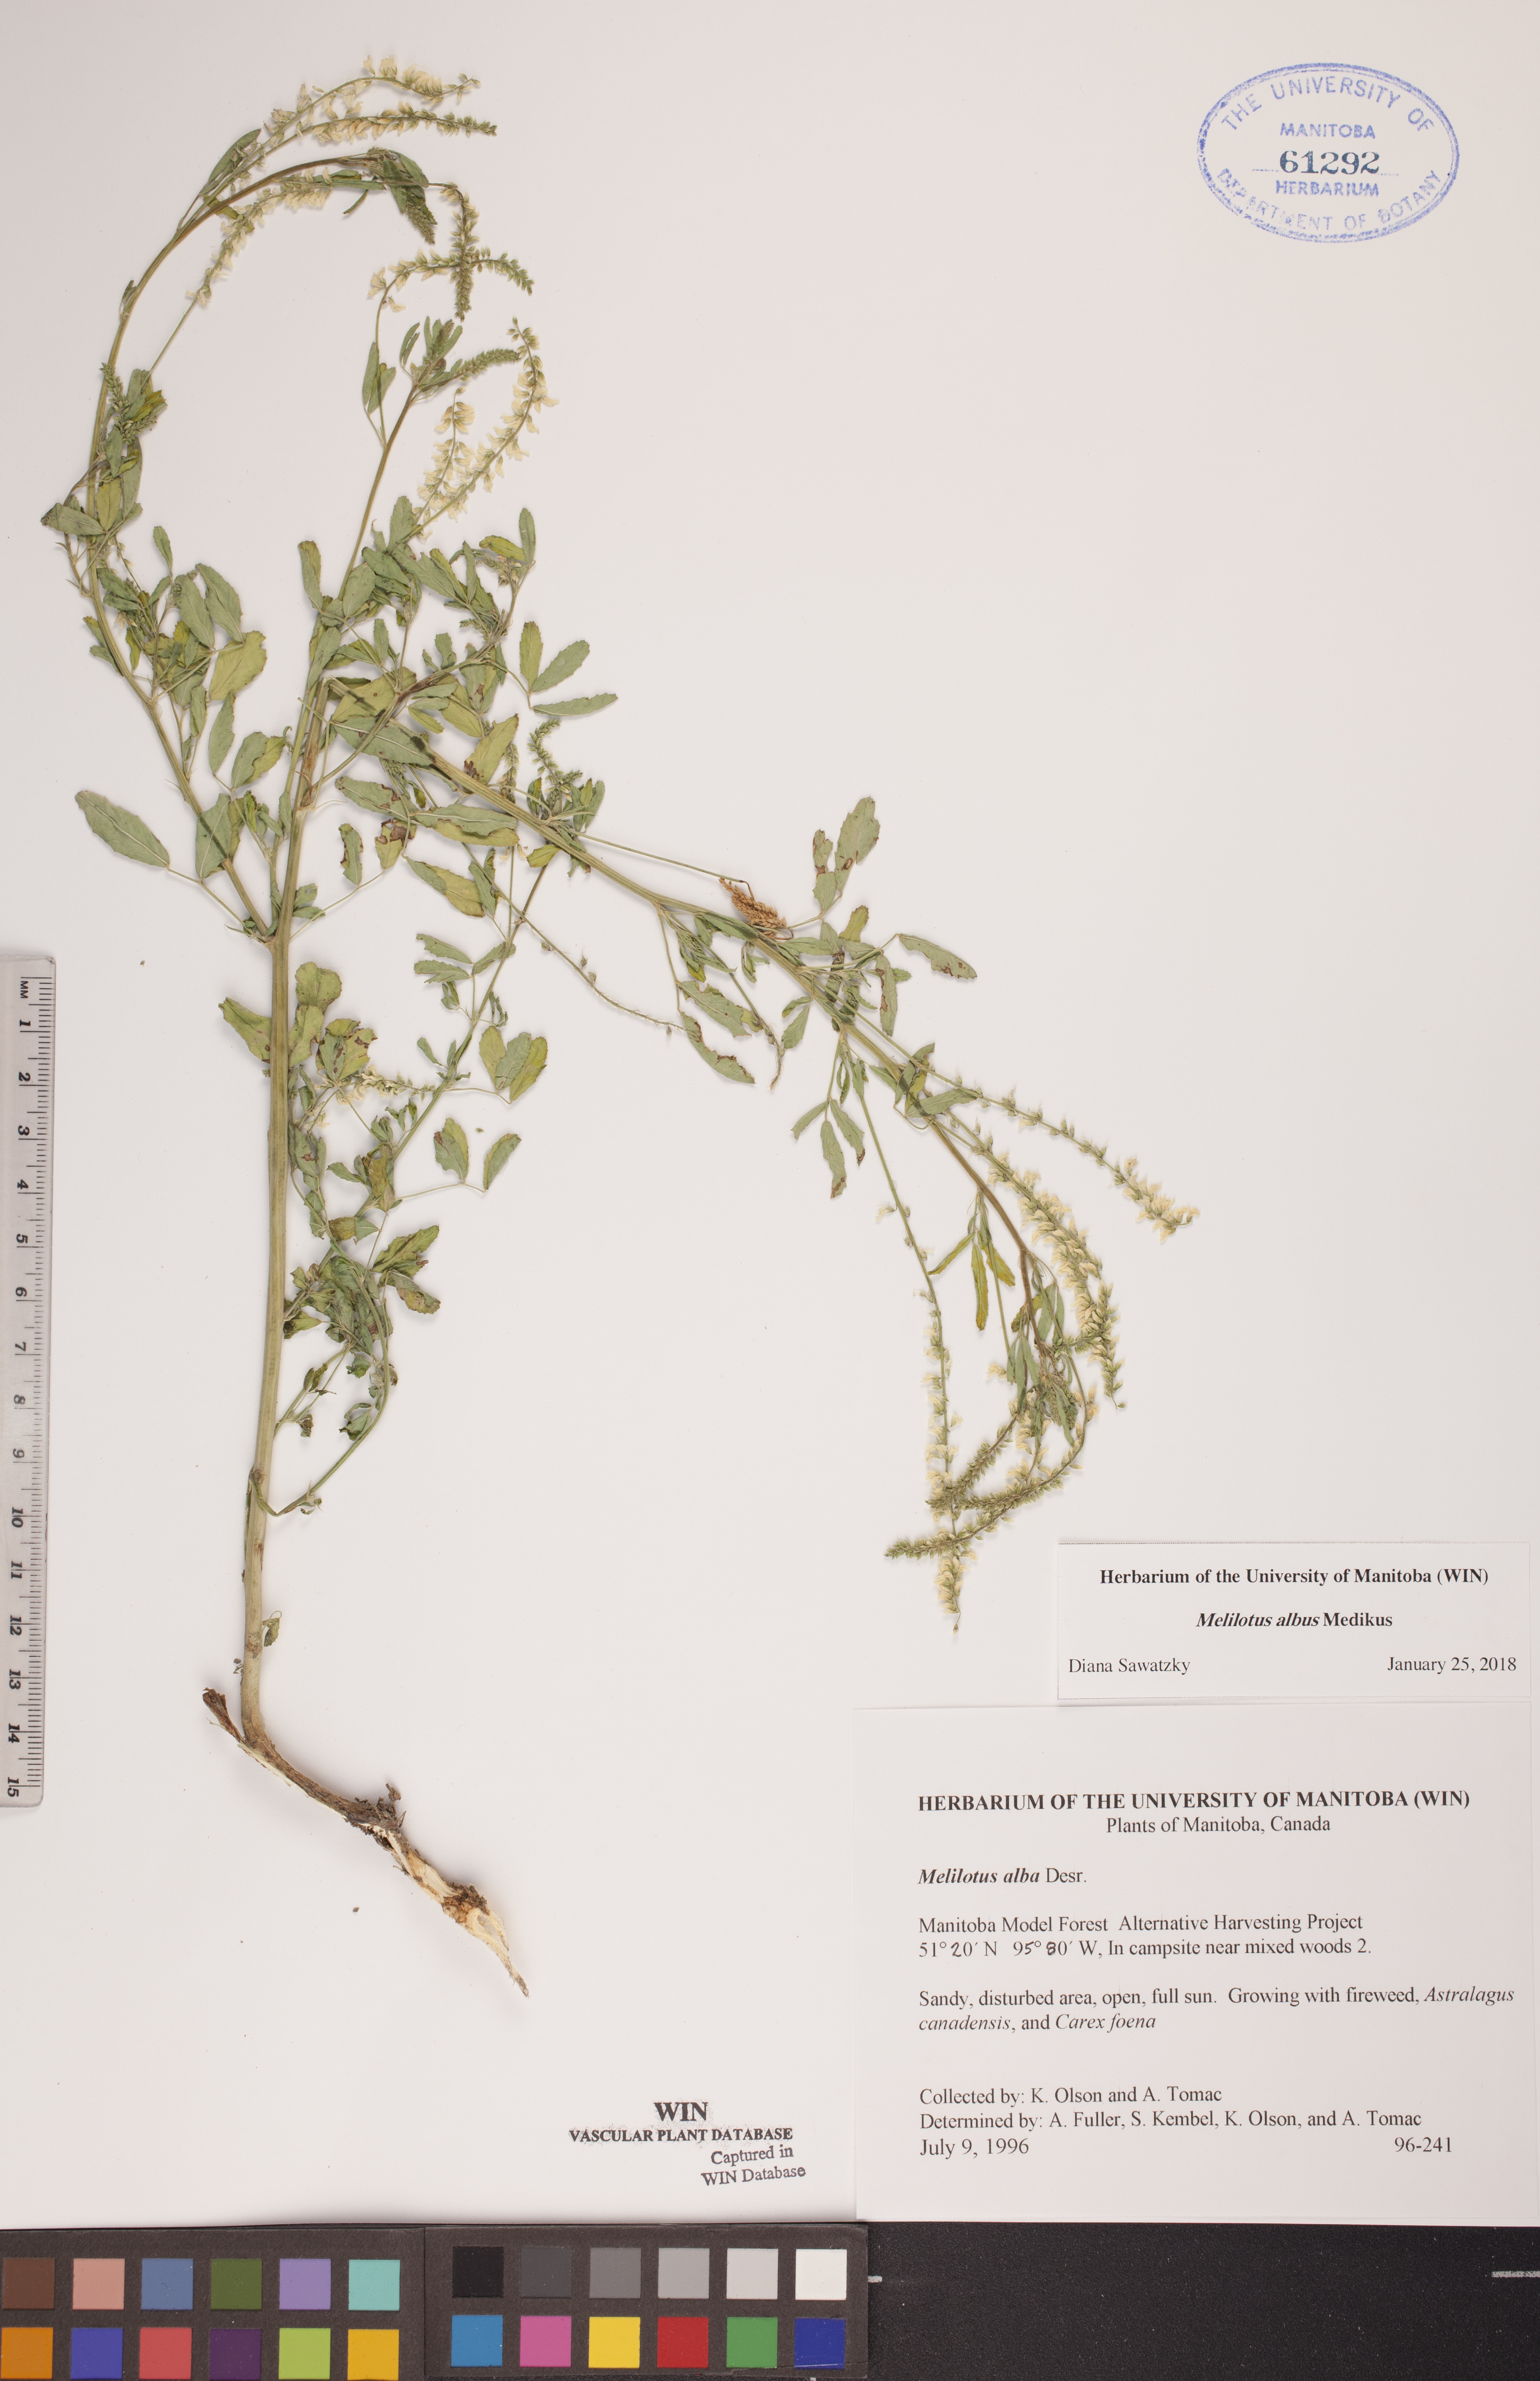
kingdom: Plantae
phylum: Tracheophyta
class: Magnoliopsida
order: Fabales
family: Fabaceae
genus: Melilotus
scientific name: Melilotus albus
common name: White melilot
